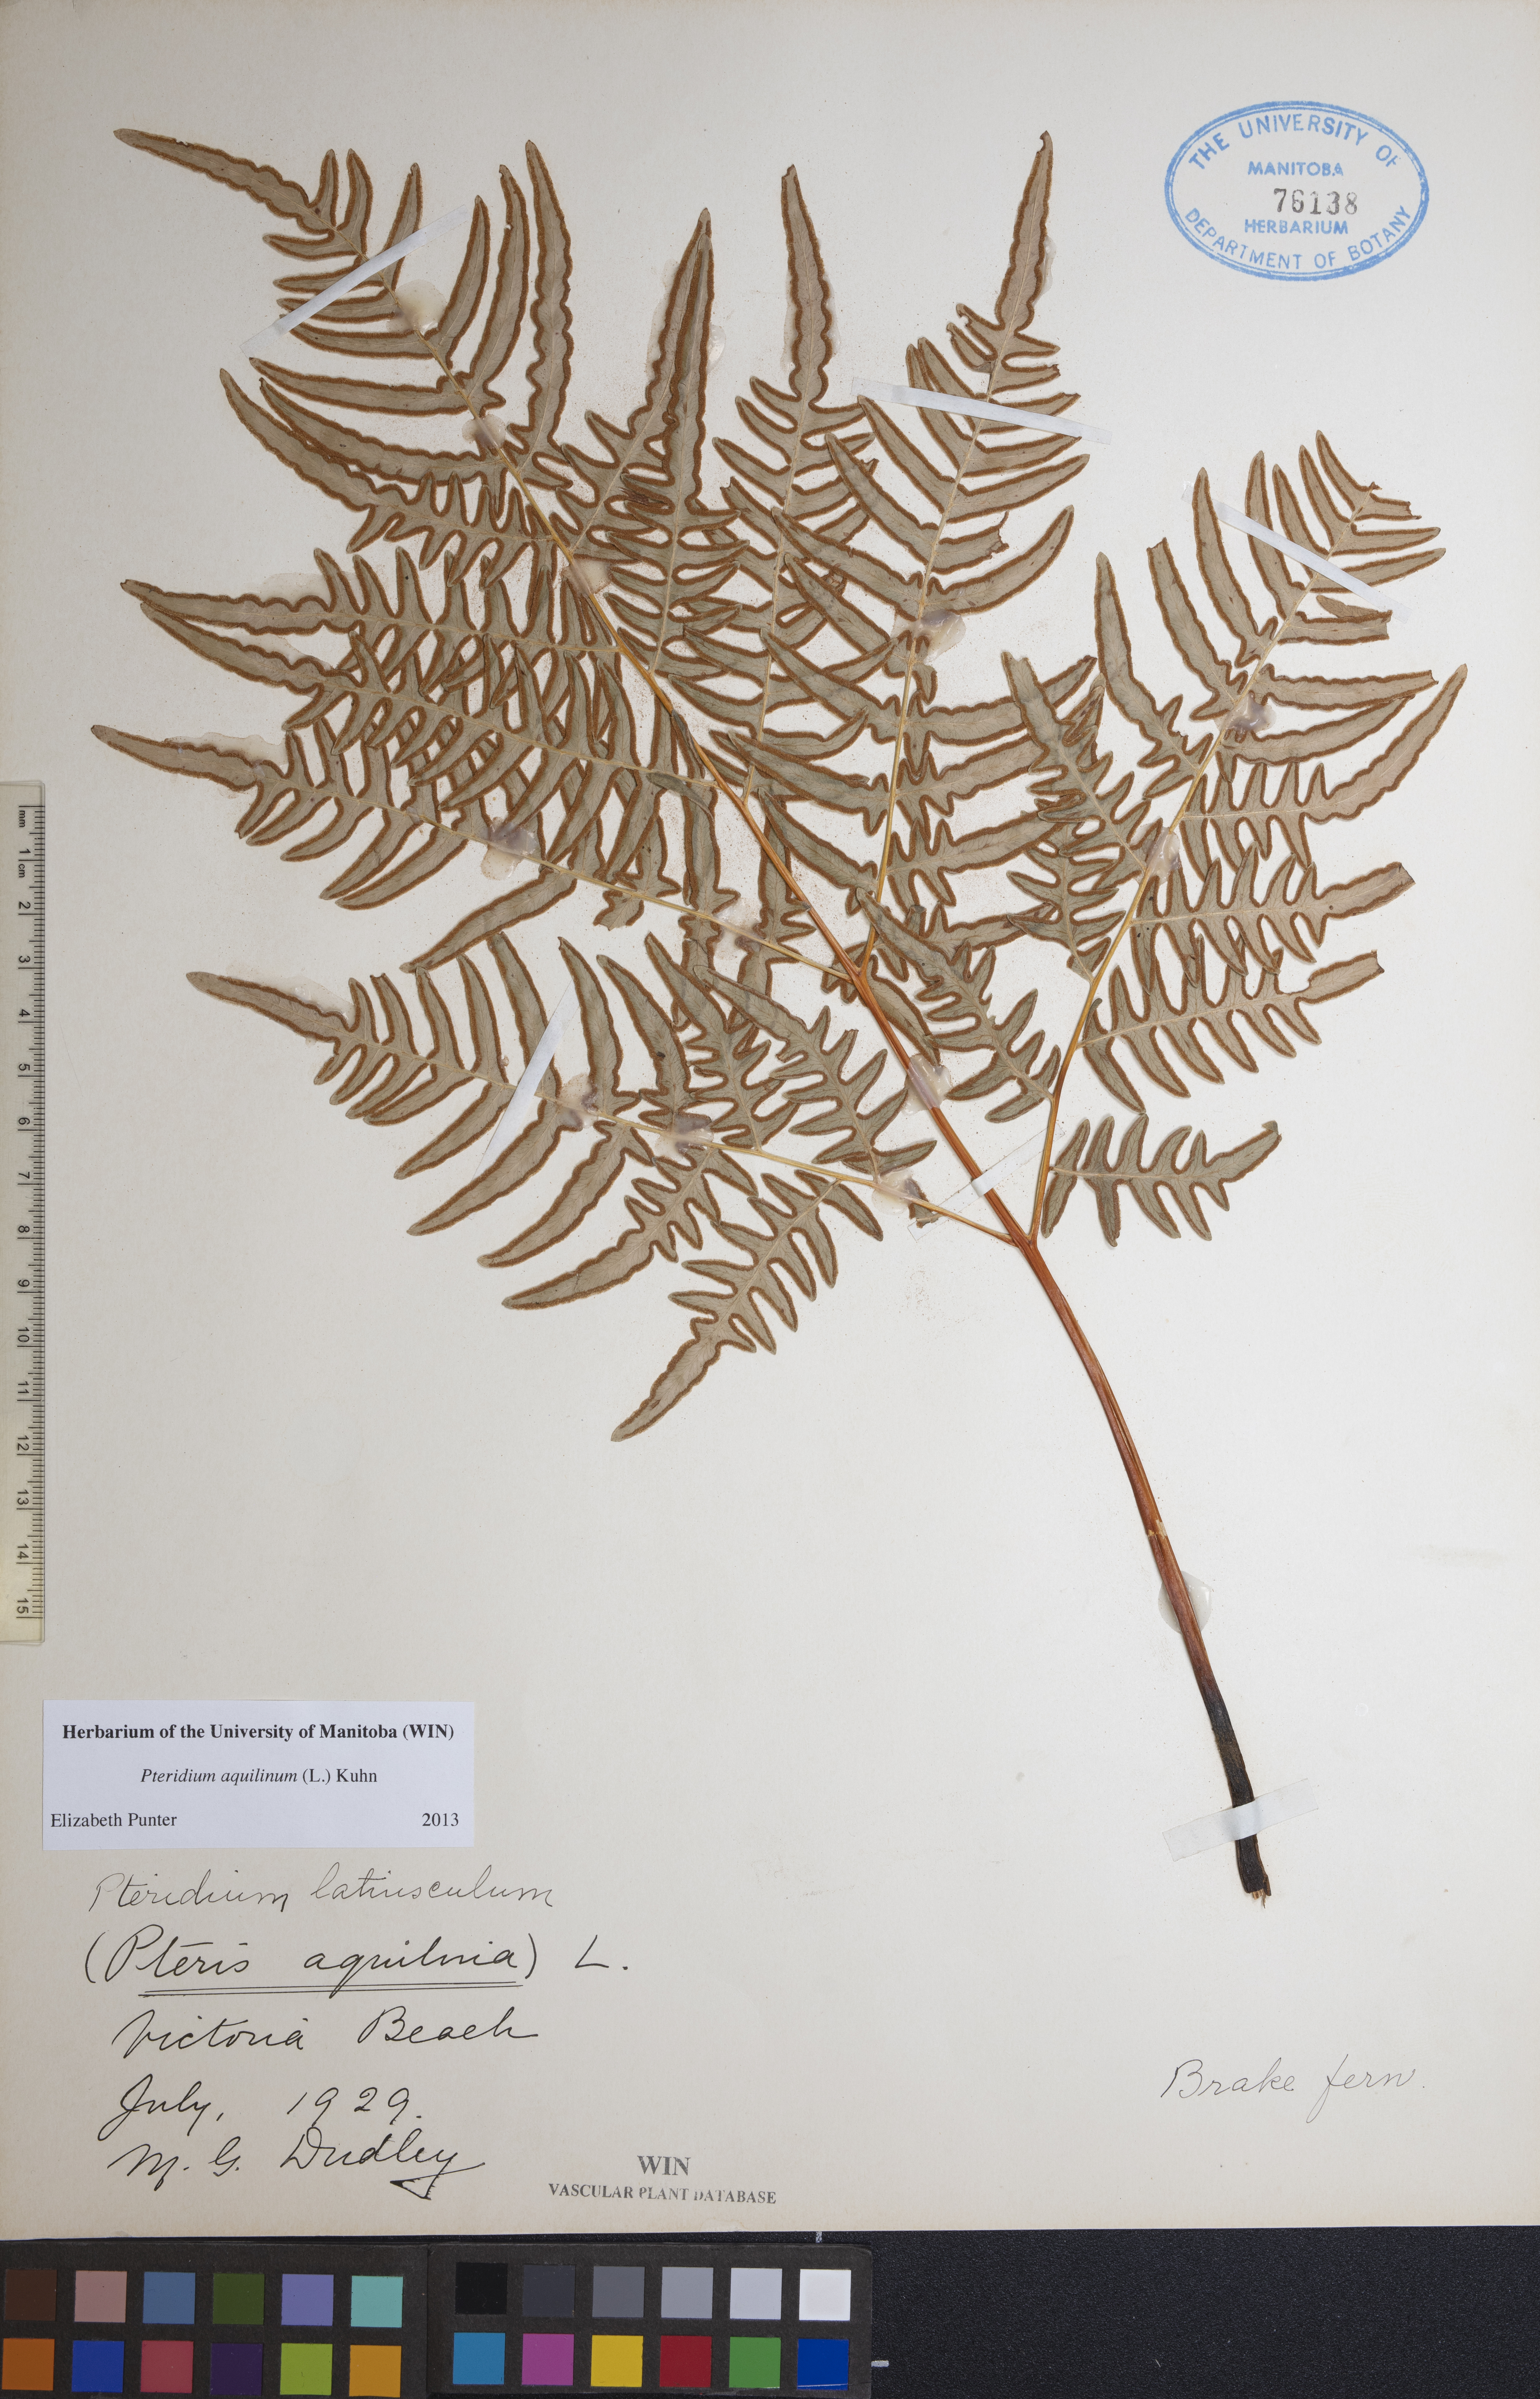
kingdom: Plantae
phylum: Tracheophyta
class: Polypodiopsida
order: Polypodiales
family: Dennstaedtiaceae
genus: Pteridium
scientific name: Pteridium aquilinum
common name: Bracken
